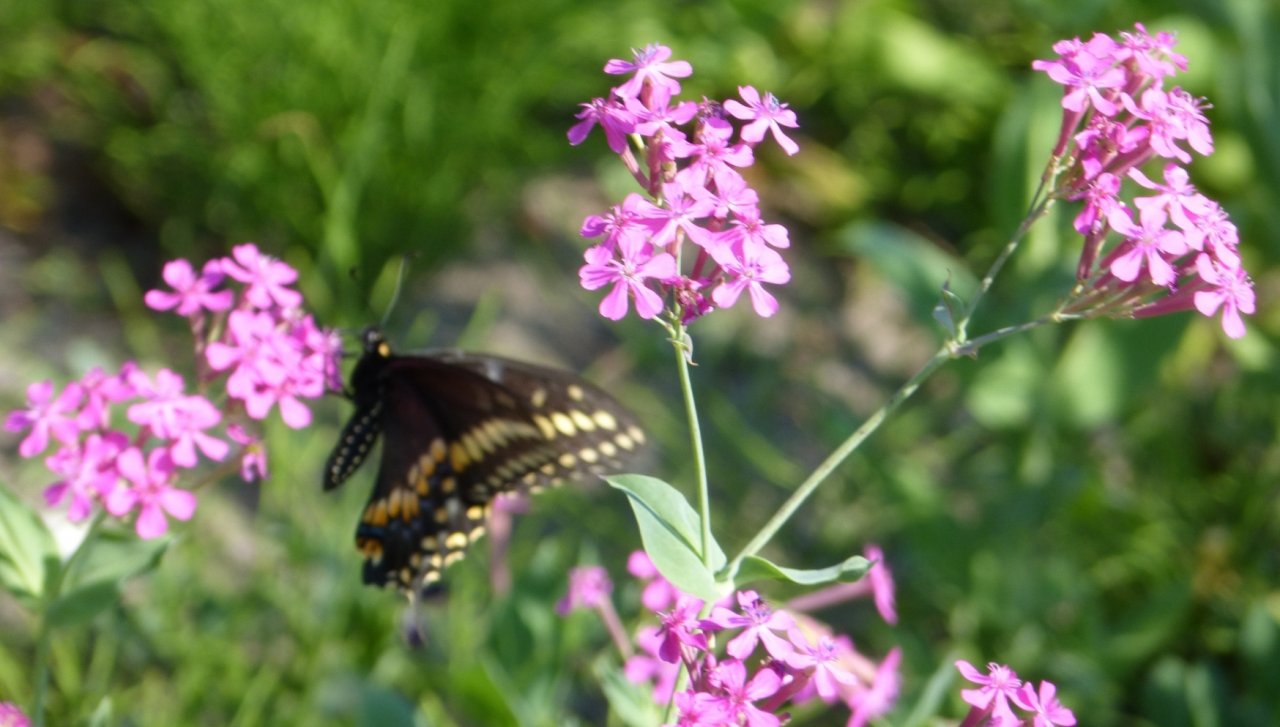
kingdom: Animalia
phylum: Arthropoda
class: Insecta
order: Lepidoptera
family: Papilionidae
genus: Papilio
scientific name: Papilio polyxenes
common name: Black Swallowtail
